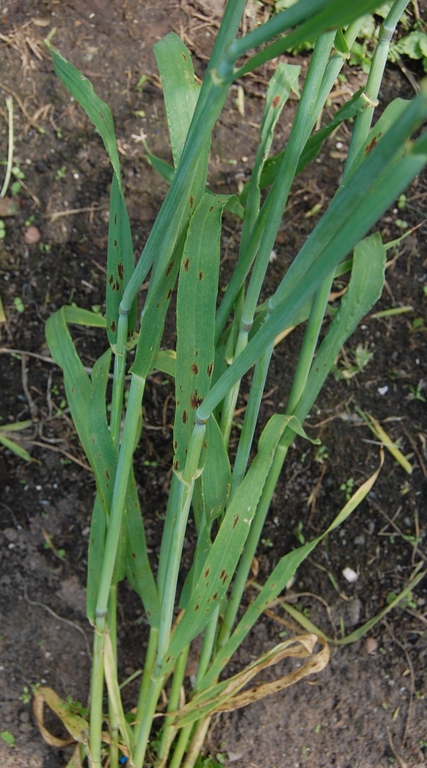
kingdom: Plantae
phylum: Tracheophyta
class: Liliopsida
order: Poales
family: Poaceae
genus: Hordeum
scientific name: Hordeum vulgare
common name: Common barley
